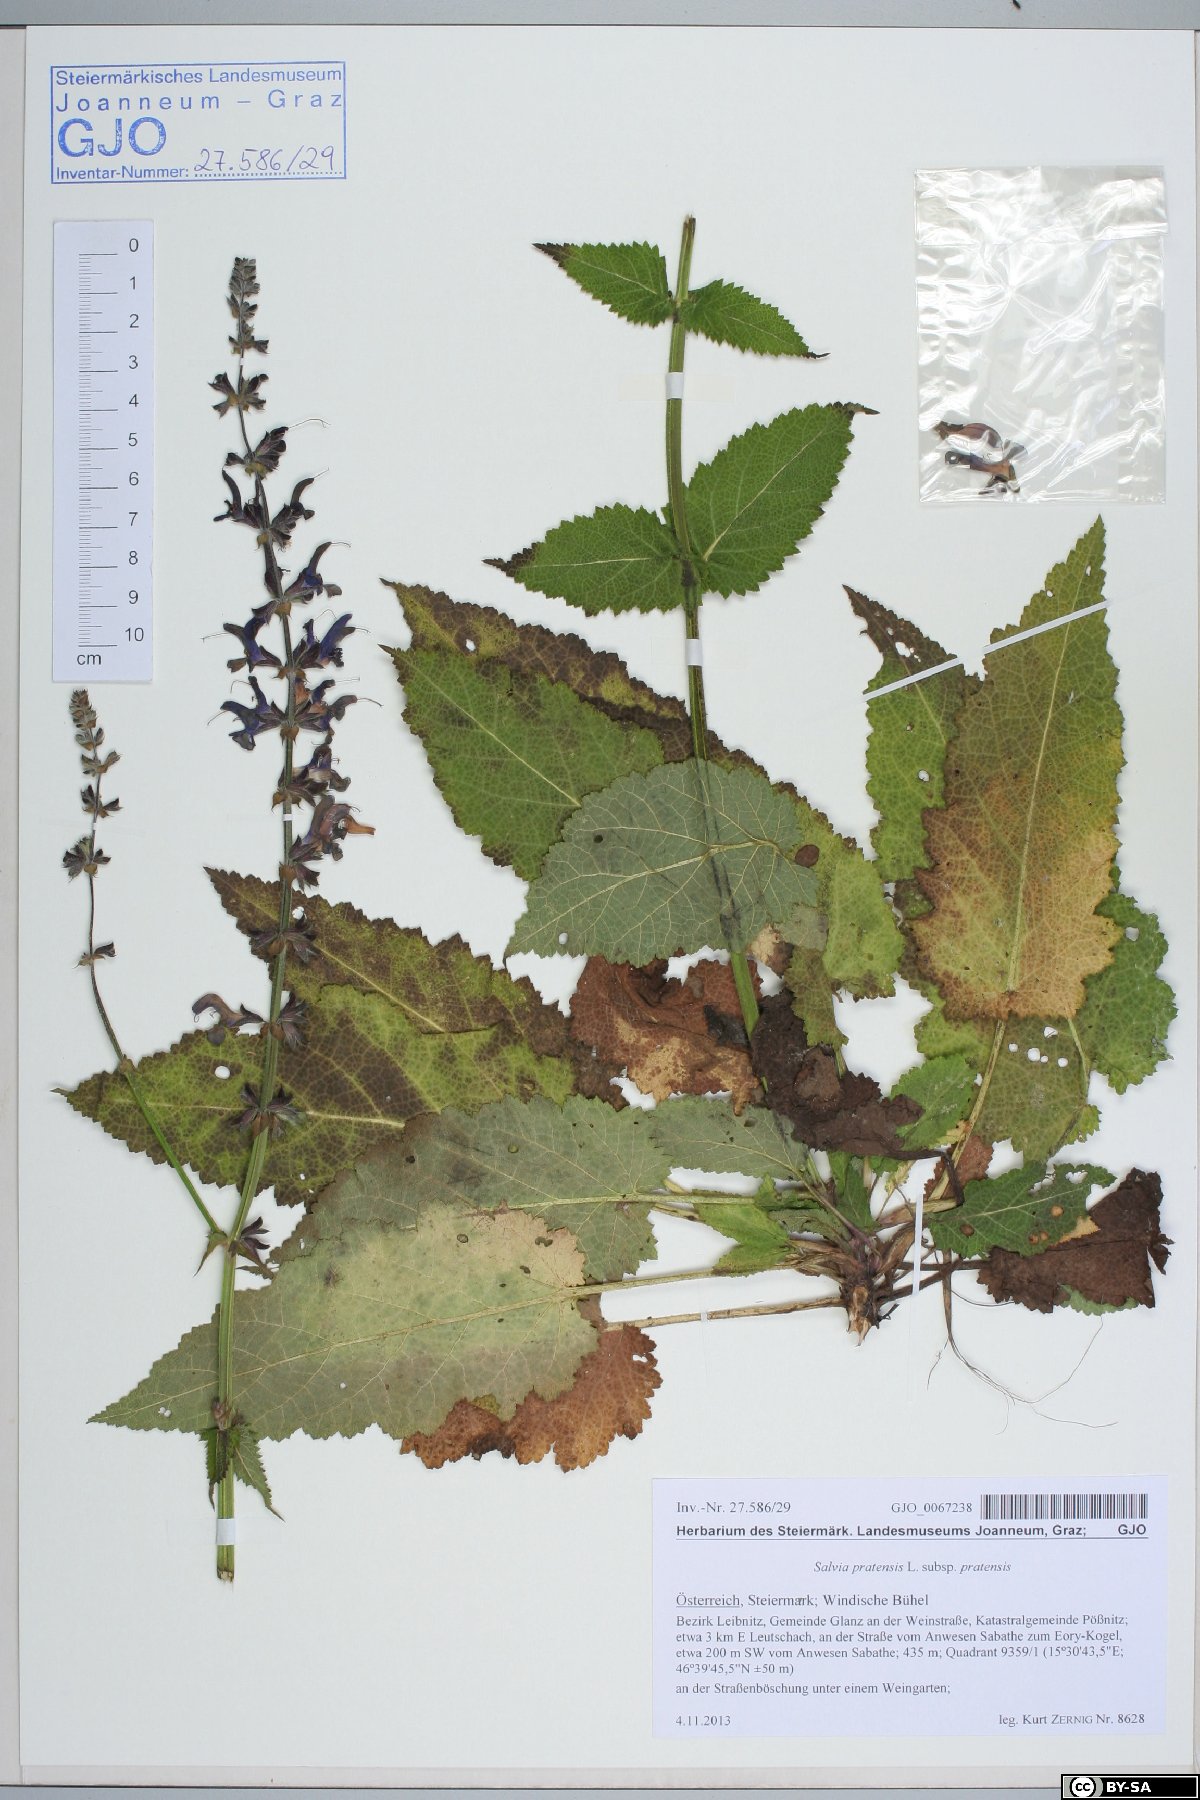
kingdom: Plantae
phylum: Tracheophyta
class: Magnoliopsida
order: Lamiales
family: Lamiaceae
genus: Salvia
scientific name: Salvia pratensis
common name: Meadow sage
